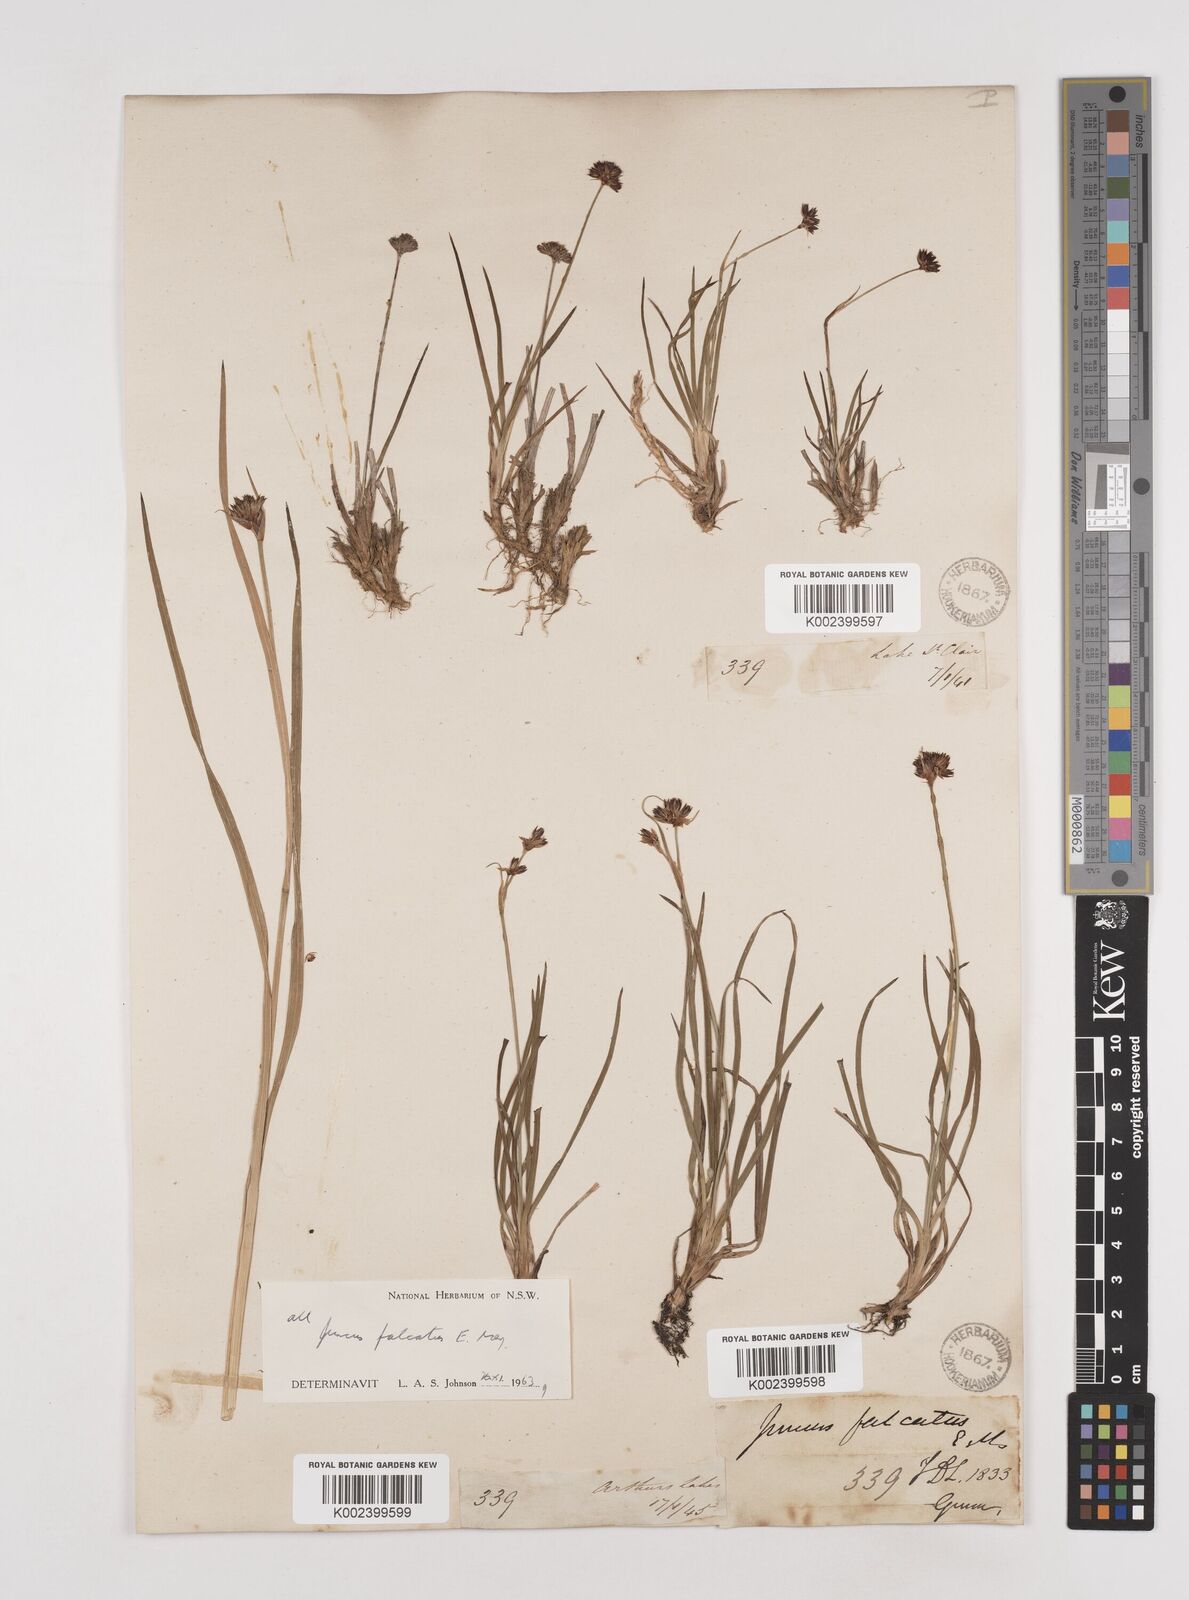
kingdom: Plantae
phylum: Tracheophyta
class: Liliopsida
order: Poales
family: Juncaceae
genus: Juncus
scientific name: Juncus falcatus
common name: Sickle-leaf rush
